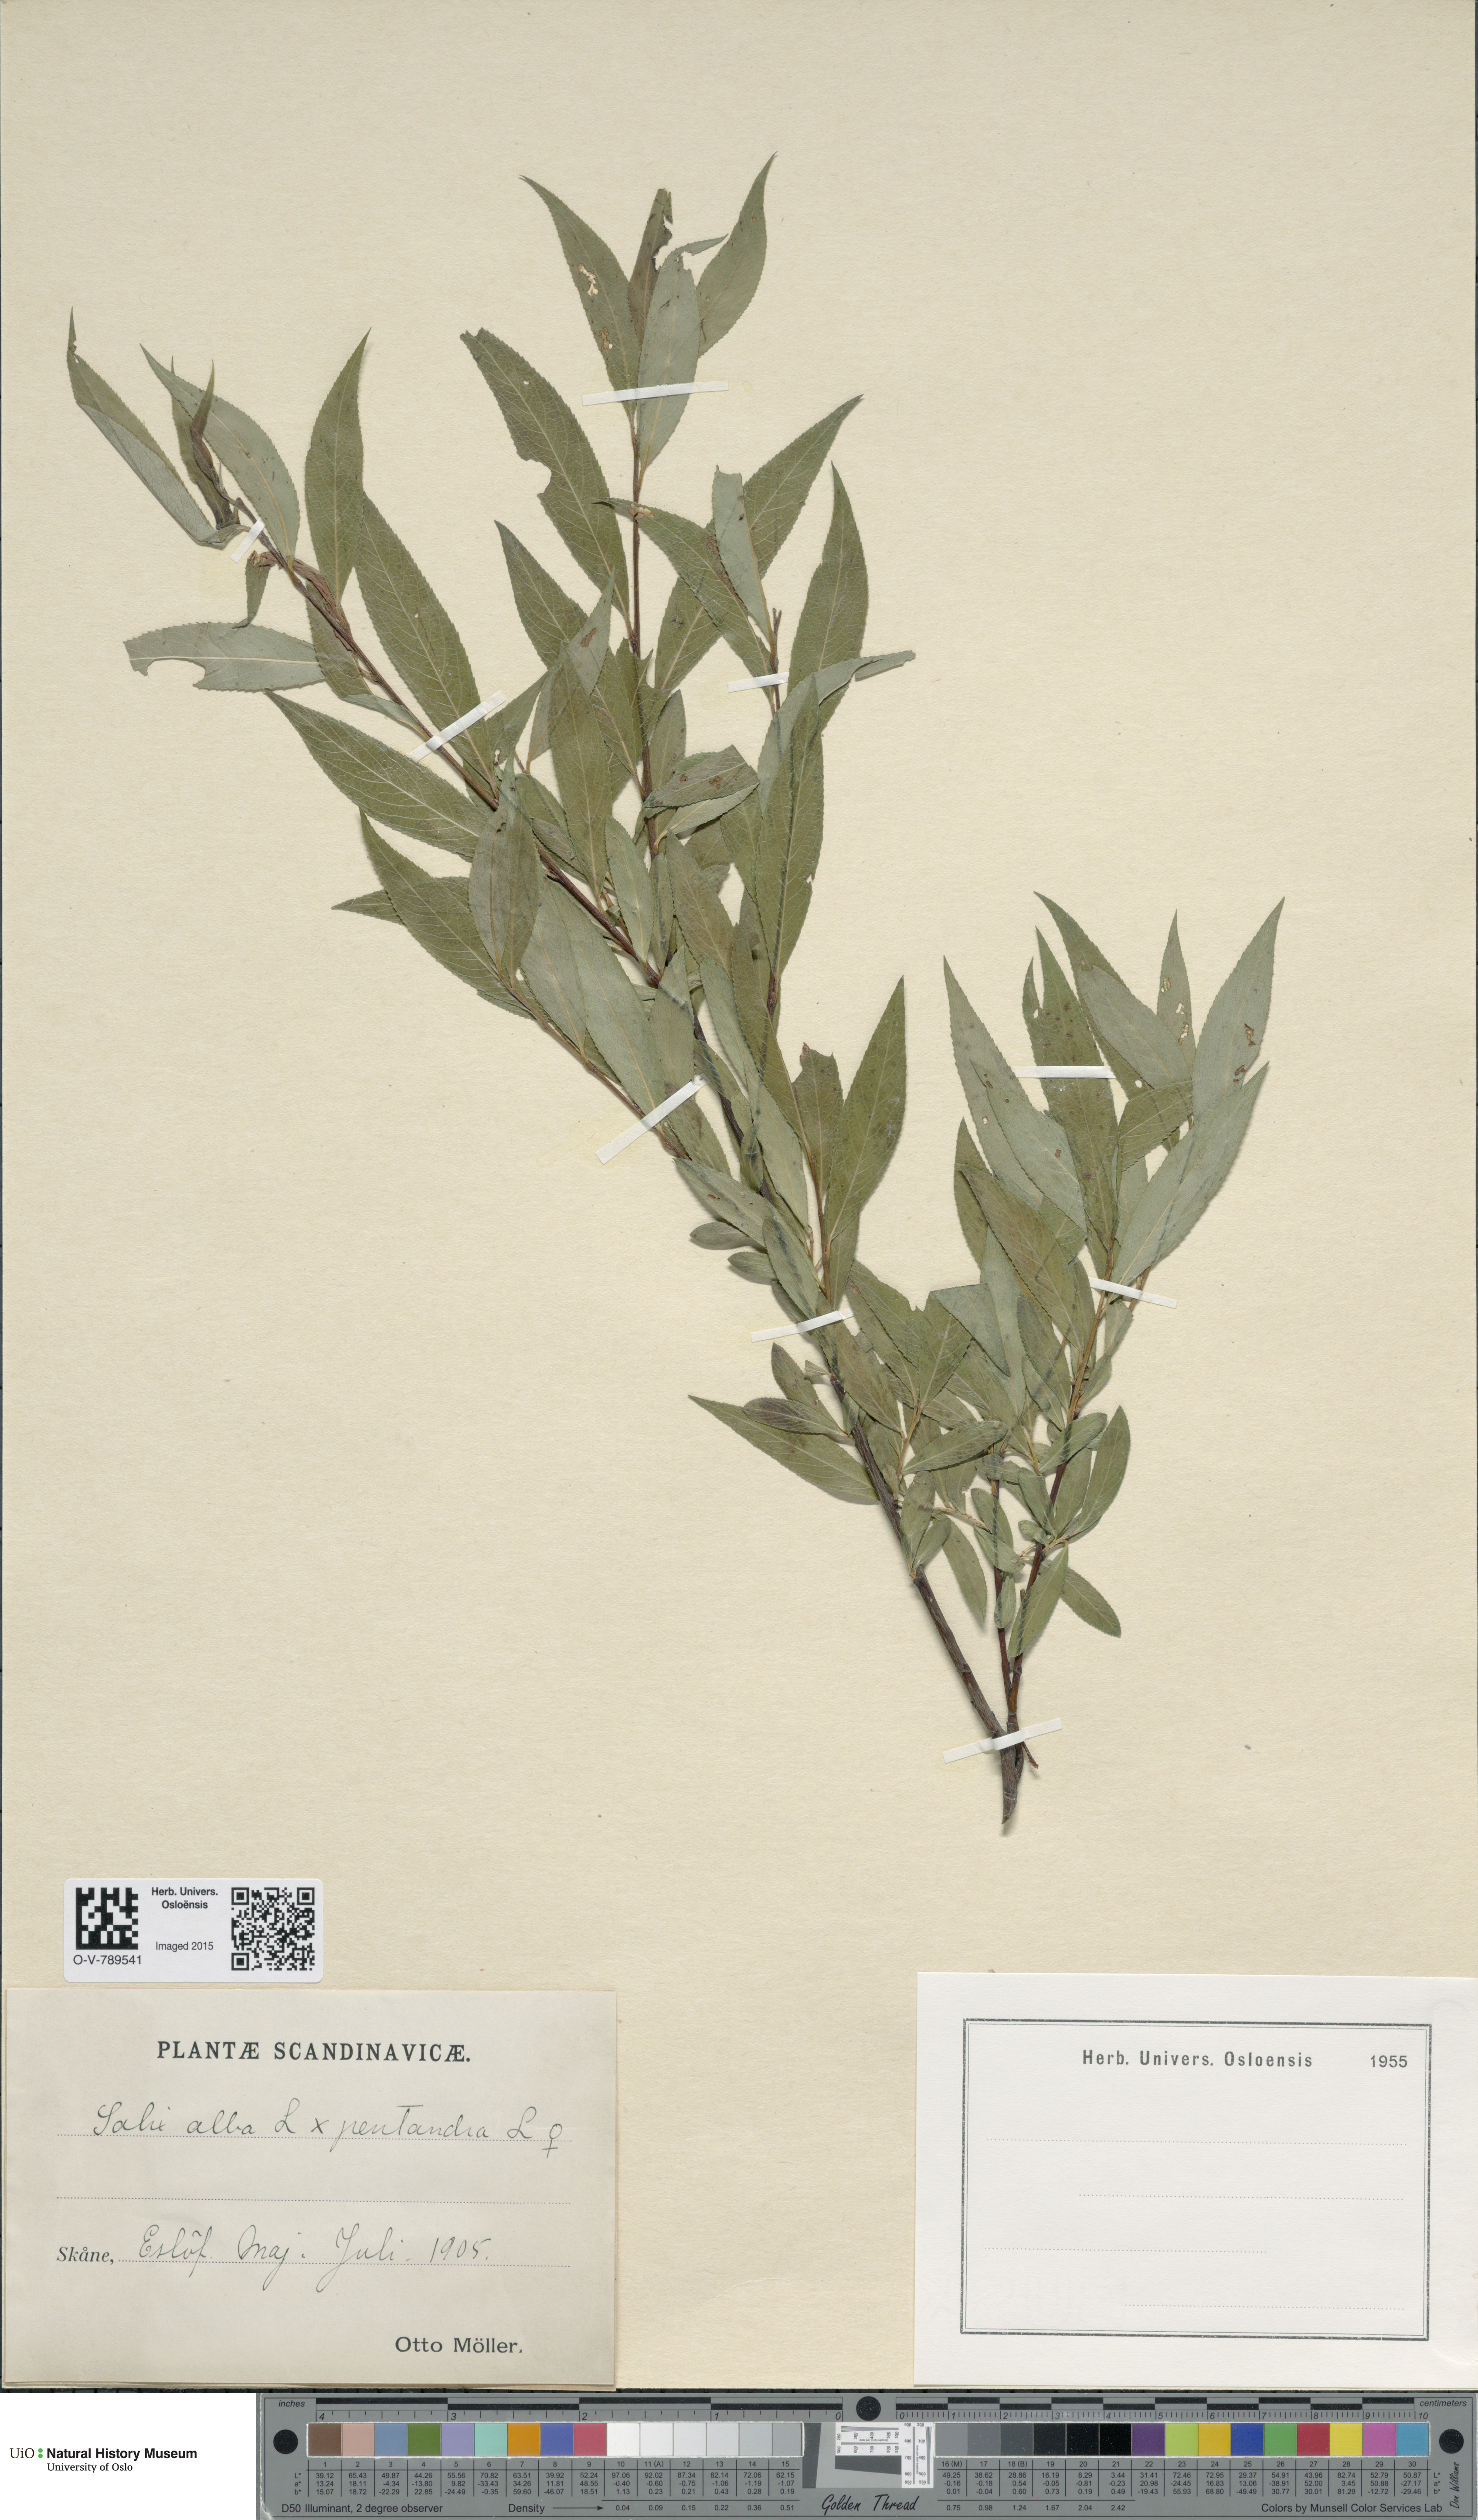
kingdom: Plantae
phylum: Tracheophyta
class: Magnoliopsida
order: Malpighiales
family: Salicaceae
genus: Salix
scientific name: Salix
